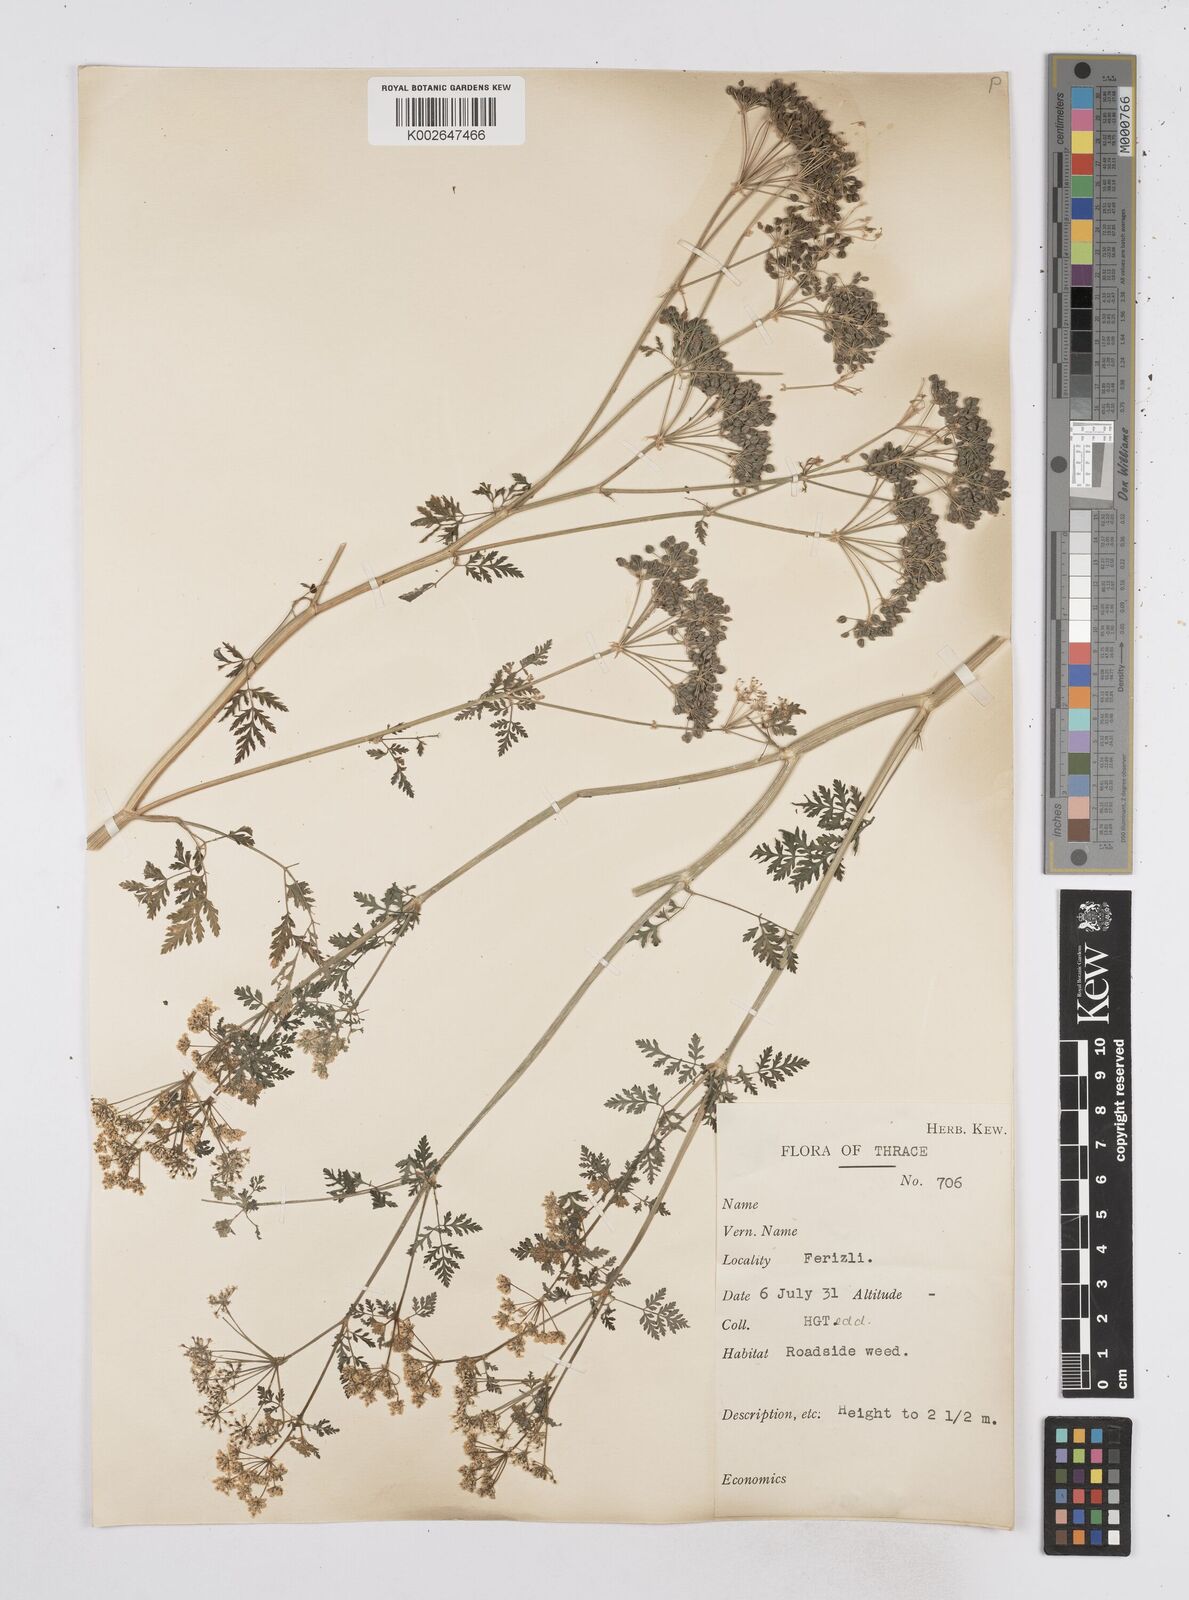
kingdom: Plantae
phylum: Tracheophyta
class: Magnoliopsida
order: Apiales
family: Apiaceae
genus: Conium
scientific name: Conium maculatum
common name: Hemlock
